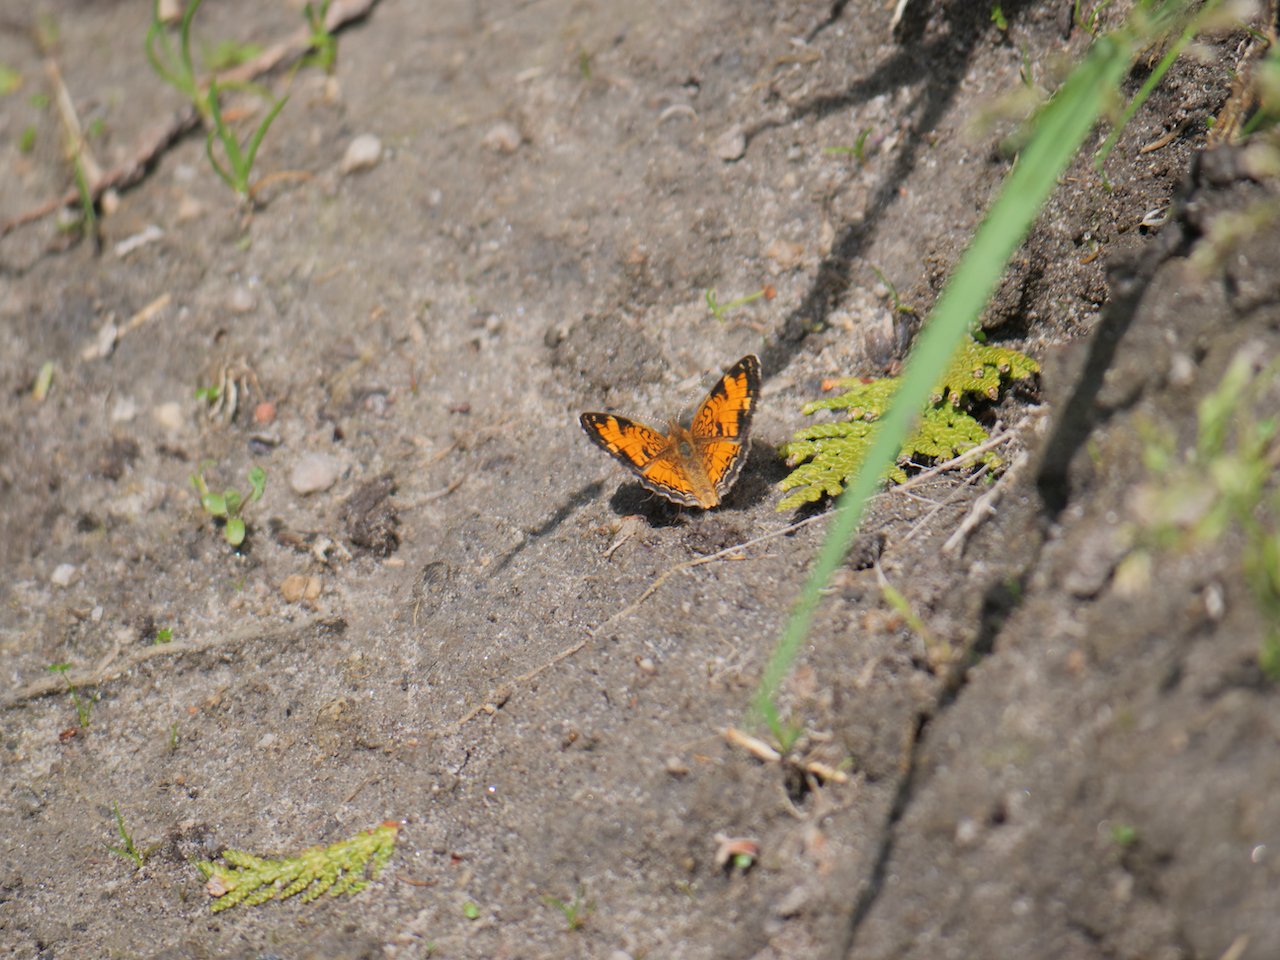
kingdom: Animalia
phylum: Arthropoda
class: Insecta
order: Lepidoptera
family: Nymphalidae
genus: Phyciodes
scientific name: Phyciodes tharos
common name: Northern Crescent
